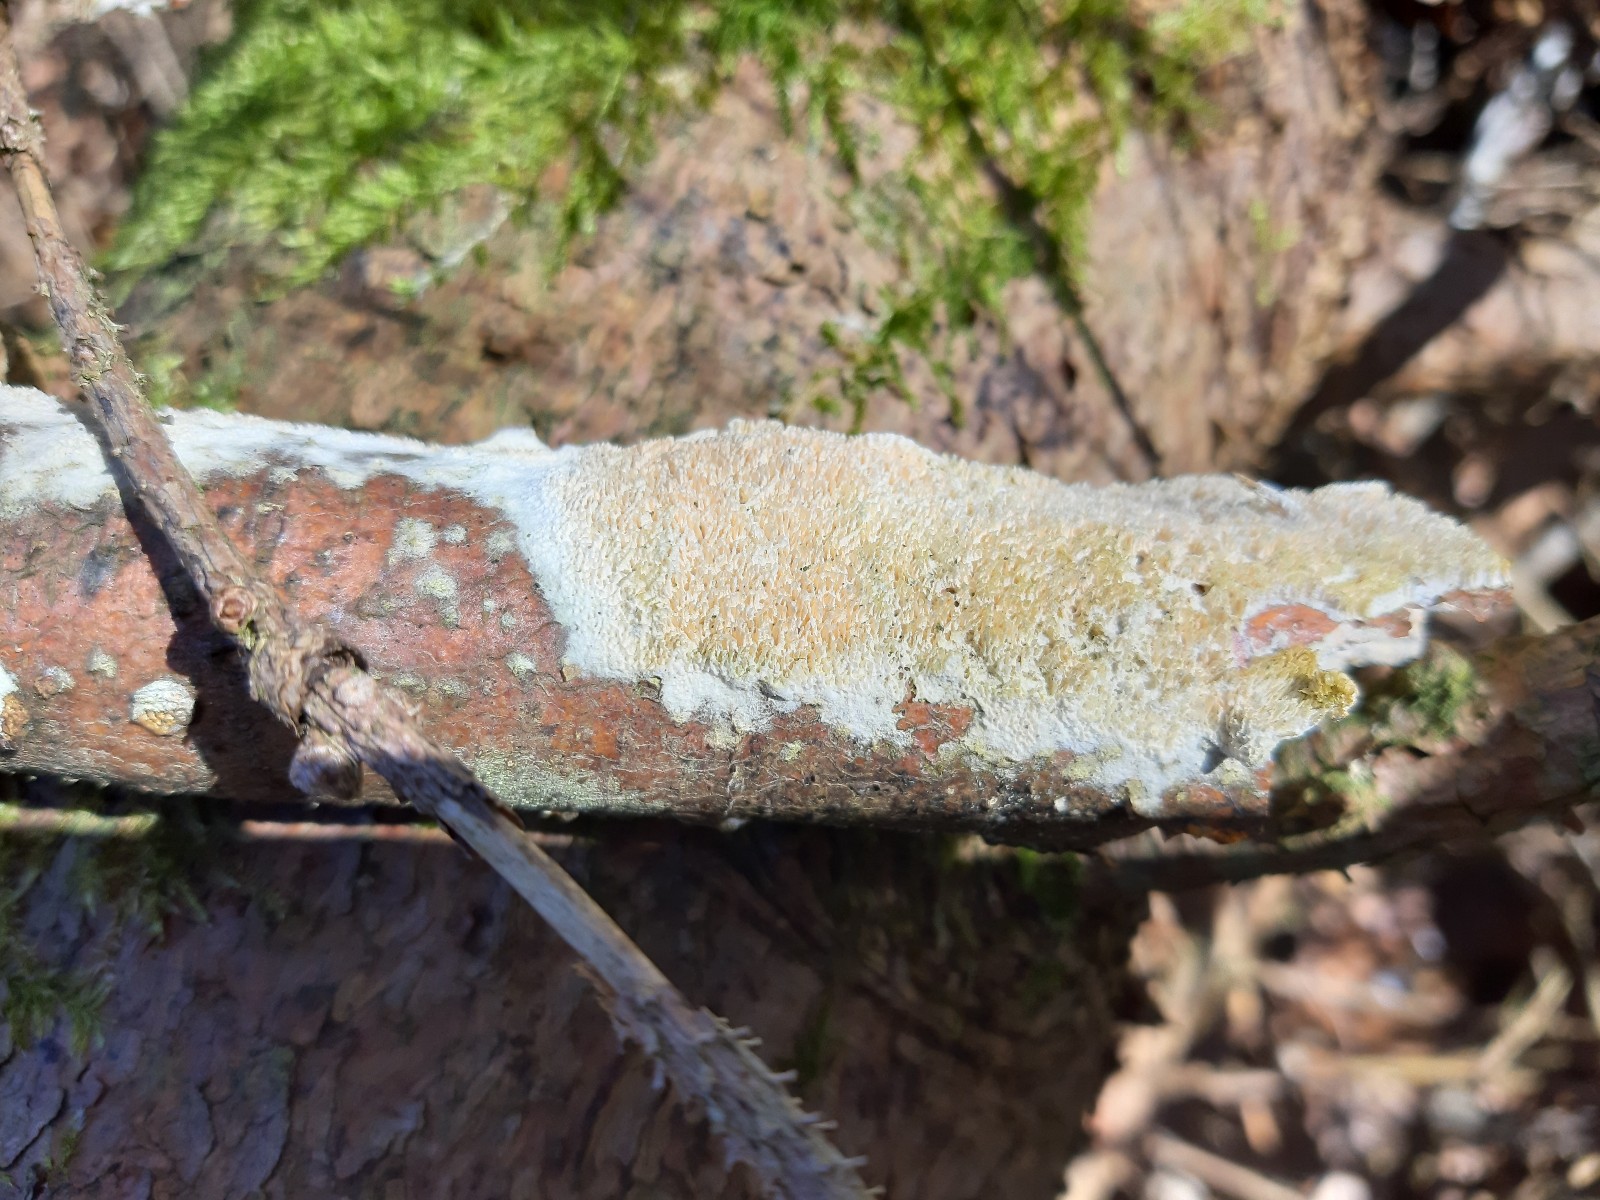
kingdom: Fungi
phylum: Basidiomycota
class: Agaricomycetes
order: Hymenochaetales
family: Schizoporaceae
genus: Xylodon
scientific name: Xylodon
